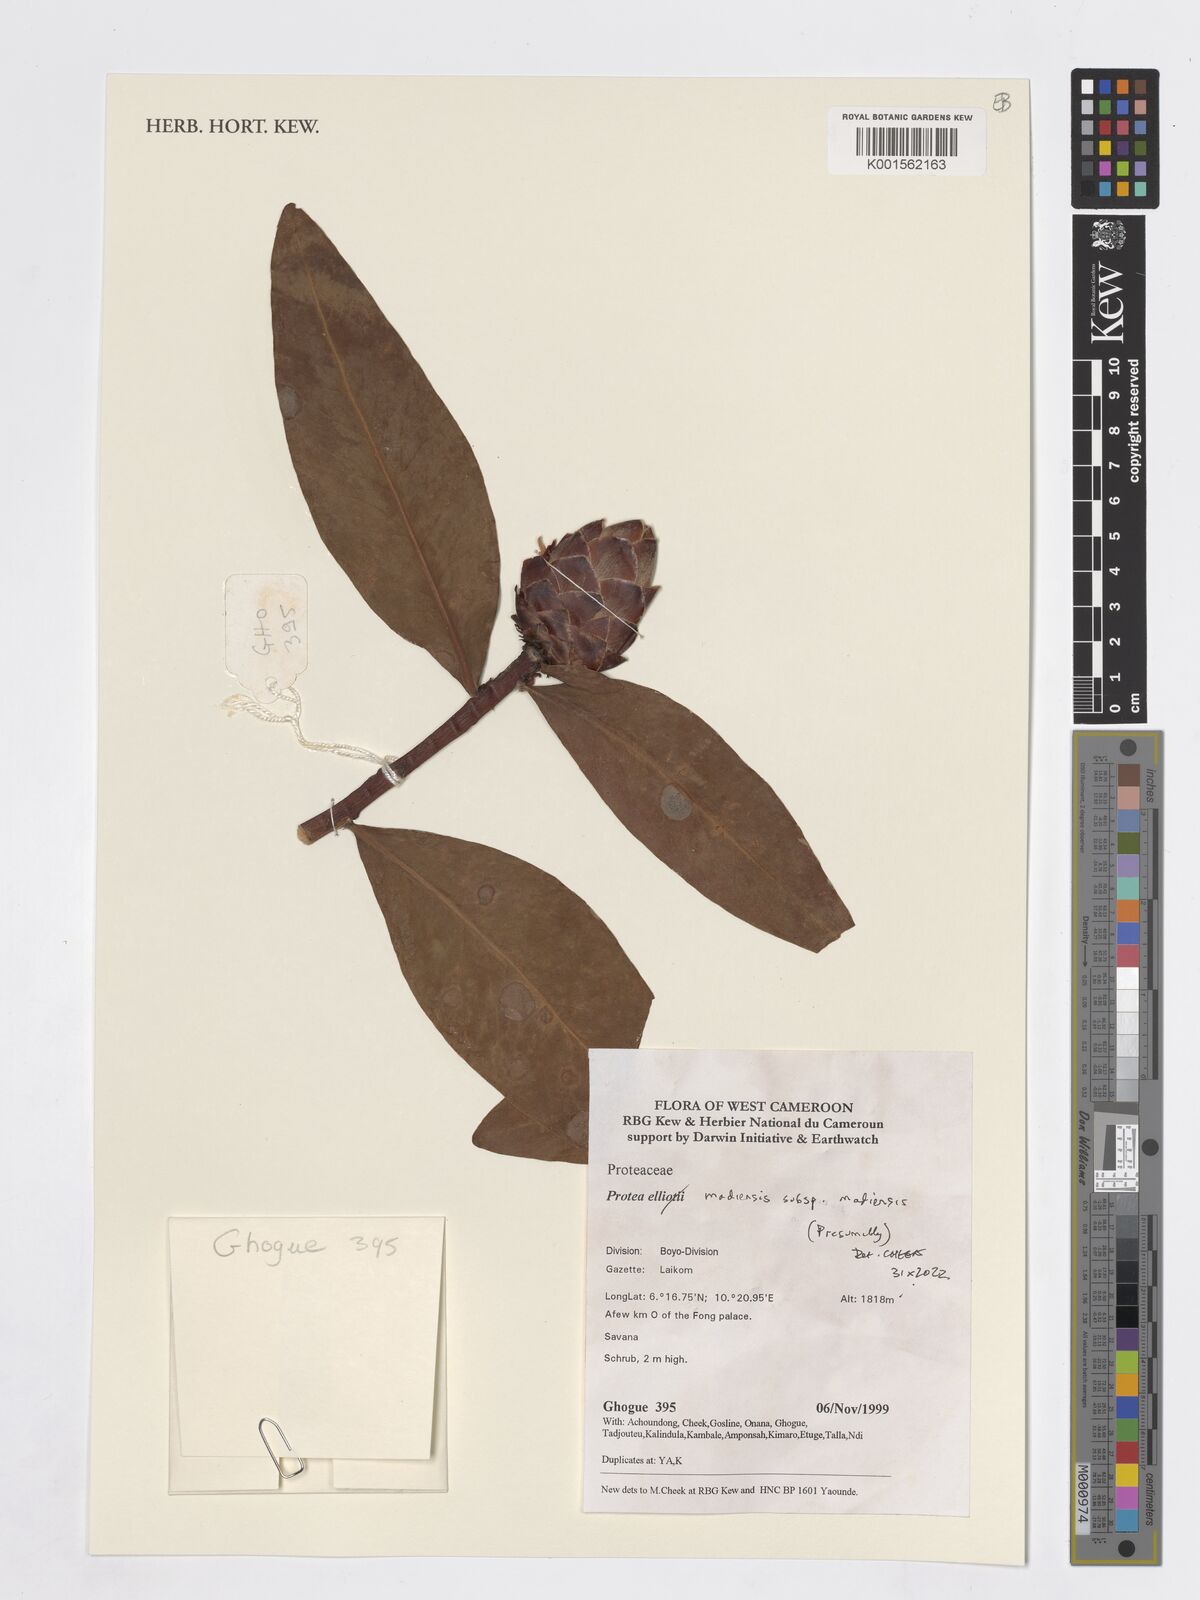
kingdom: Plantae
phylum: Tracheophyta
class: Magnoliopsida
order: Proteales
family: Proteaceae
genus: Protea
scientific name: Protea madiensis
